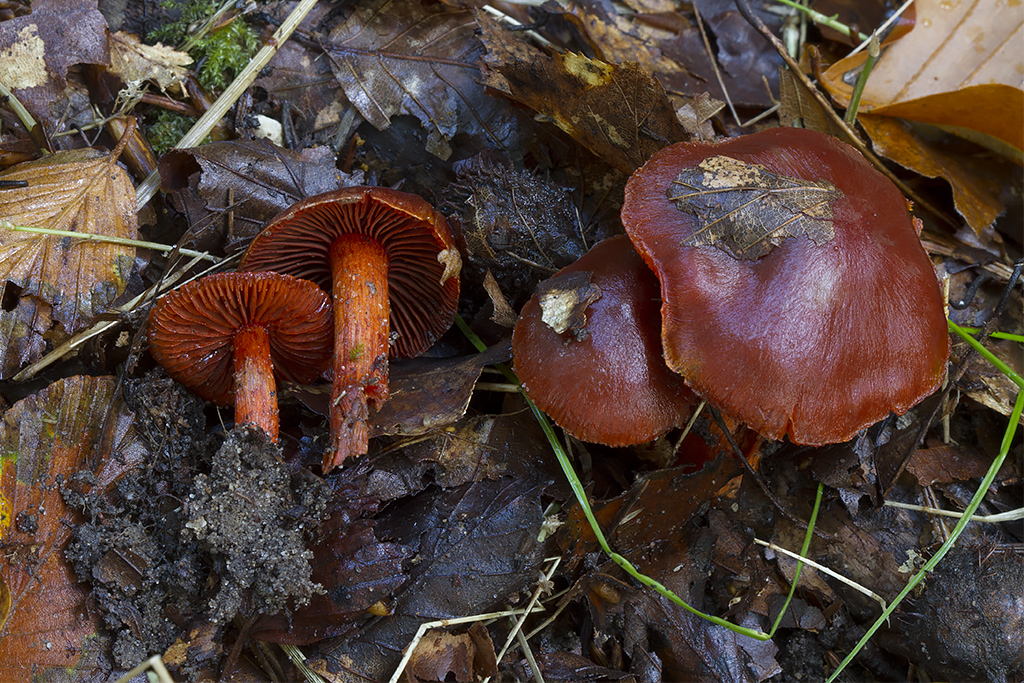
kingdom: Fungi
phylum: Basidiomycota
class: Agaricomycetes
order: Agaricales
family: Cortinariaceae
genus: Cortinarius
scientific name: Cortinarius cinnabarinus
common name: cinnober-slørhat
